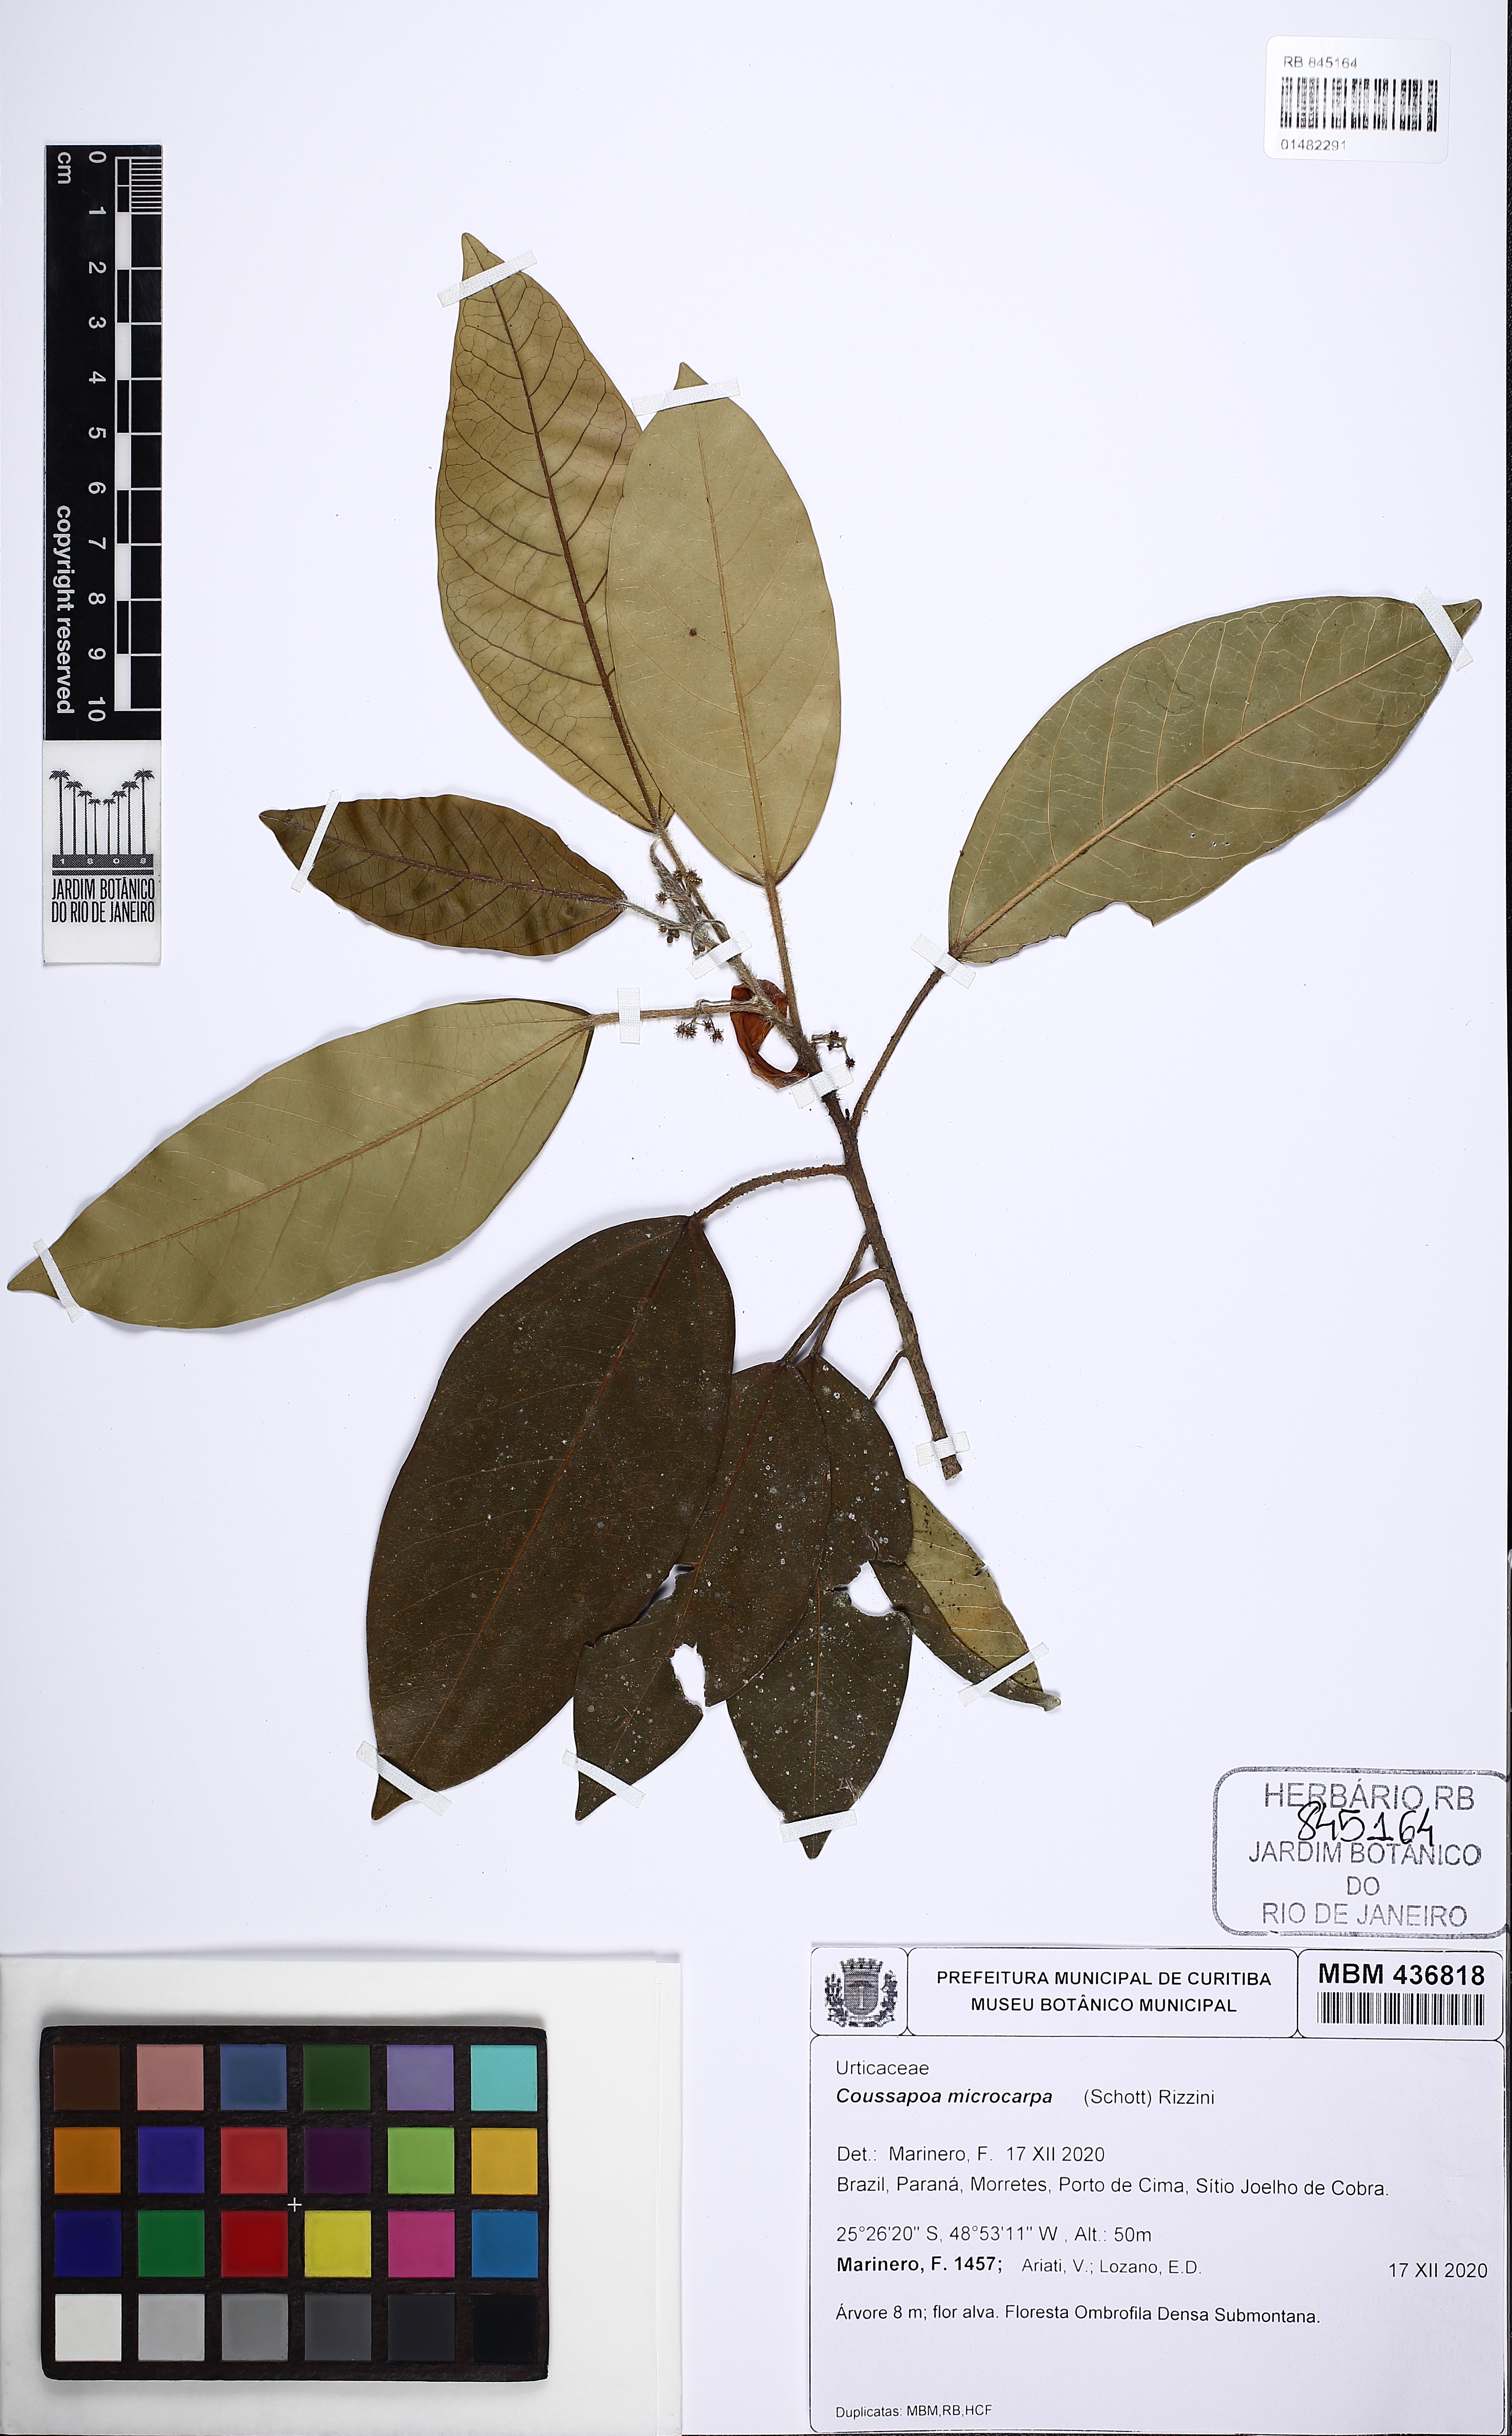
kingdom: Plantae
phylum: Tracheophyta
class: Magnoliopsida
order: Rosales
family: Urticaceae
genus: Coussapoa
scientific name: Coussapoa microcarpa
